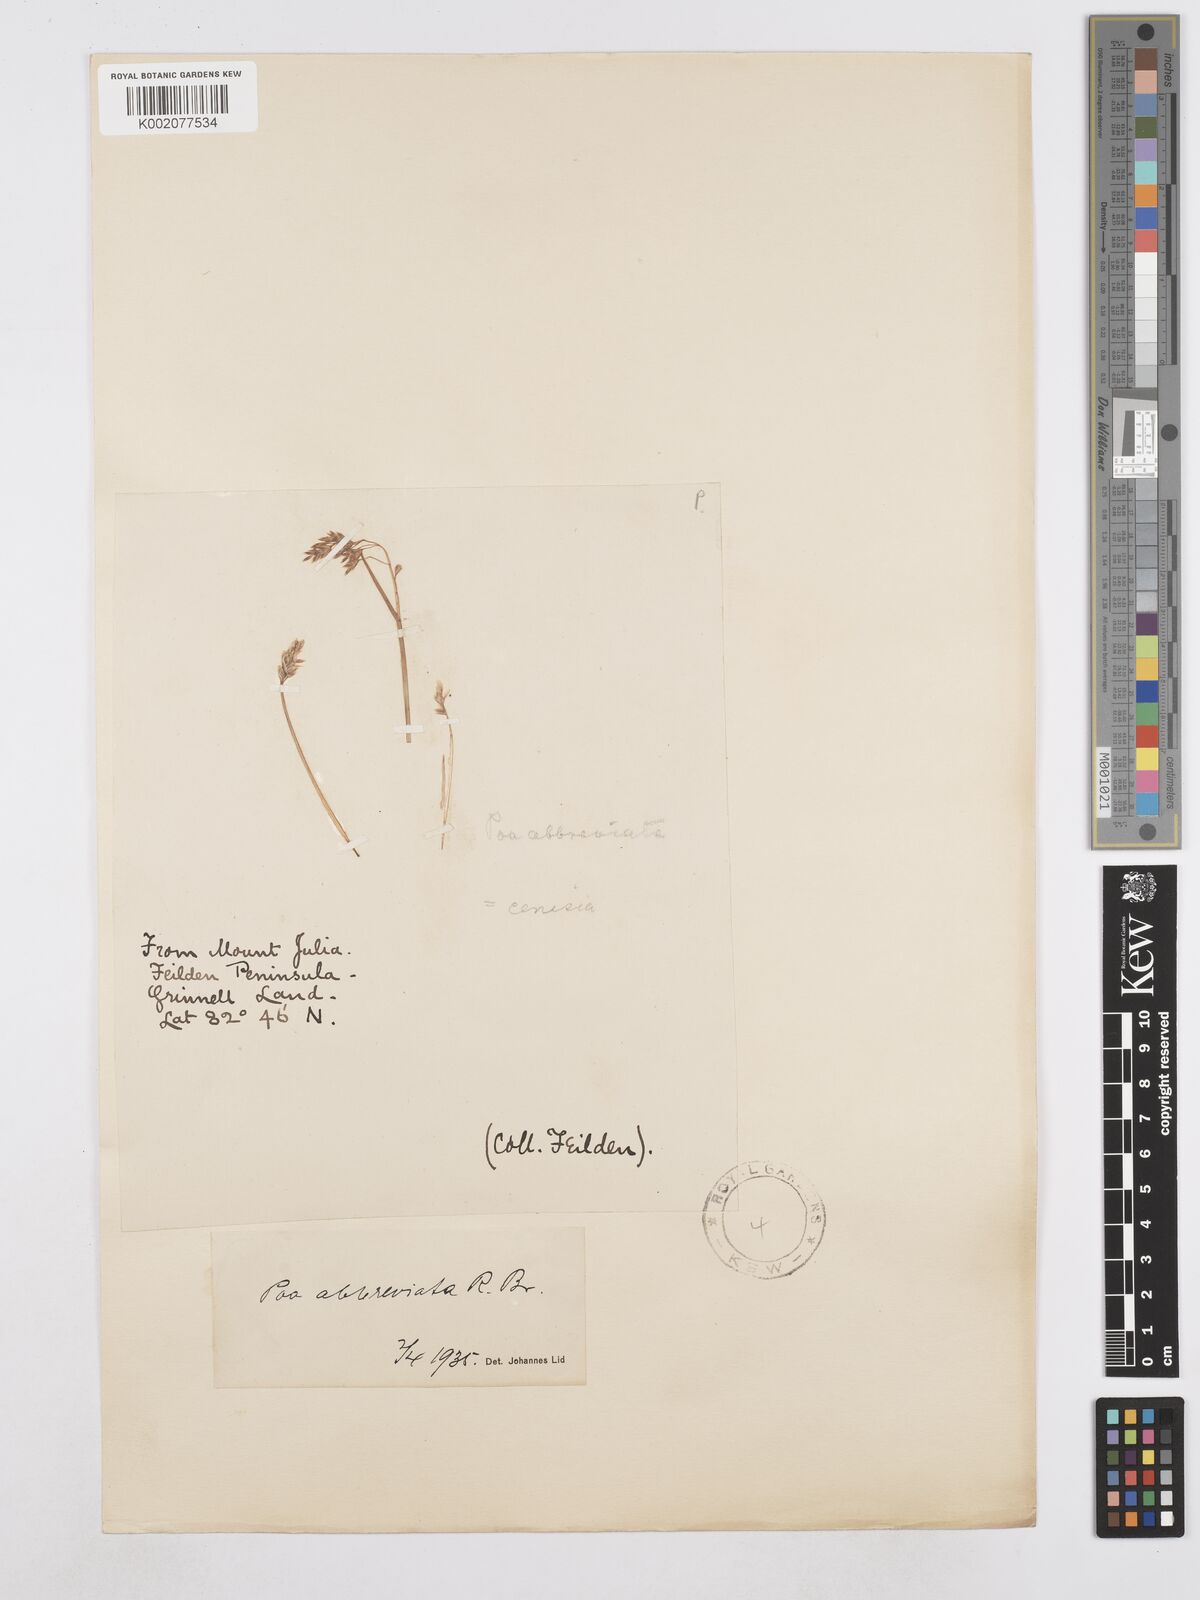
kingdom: Plantae
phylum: Tracheophyta
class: Liliopsida
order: Poales
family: Poaceae
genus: Poa
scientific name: Poa abbreviata
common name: Abbreviated bluegrass
